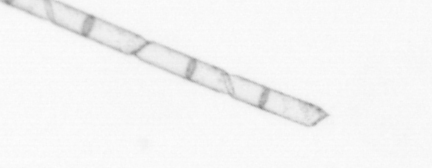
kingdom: Chromista
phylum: Ochrophyta
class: Bacillariophyceae
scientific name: Bacillariophyceae
